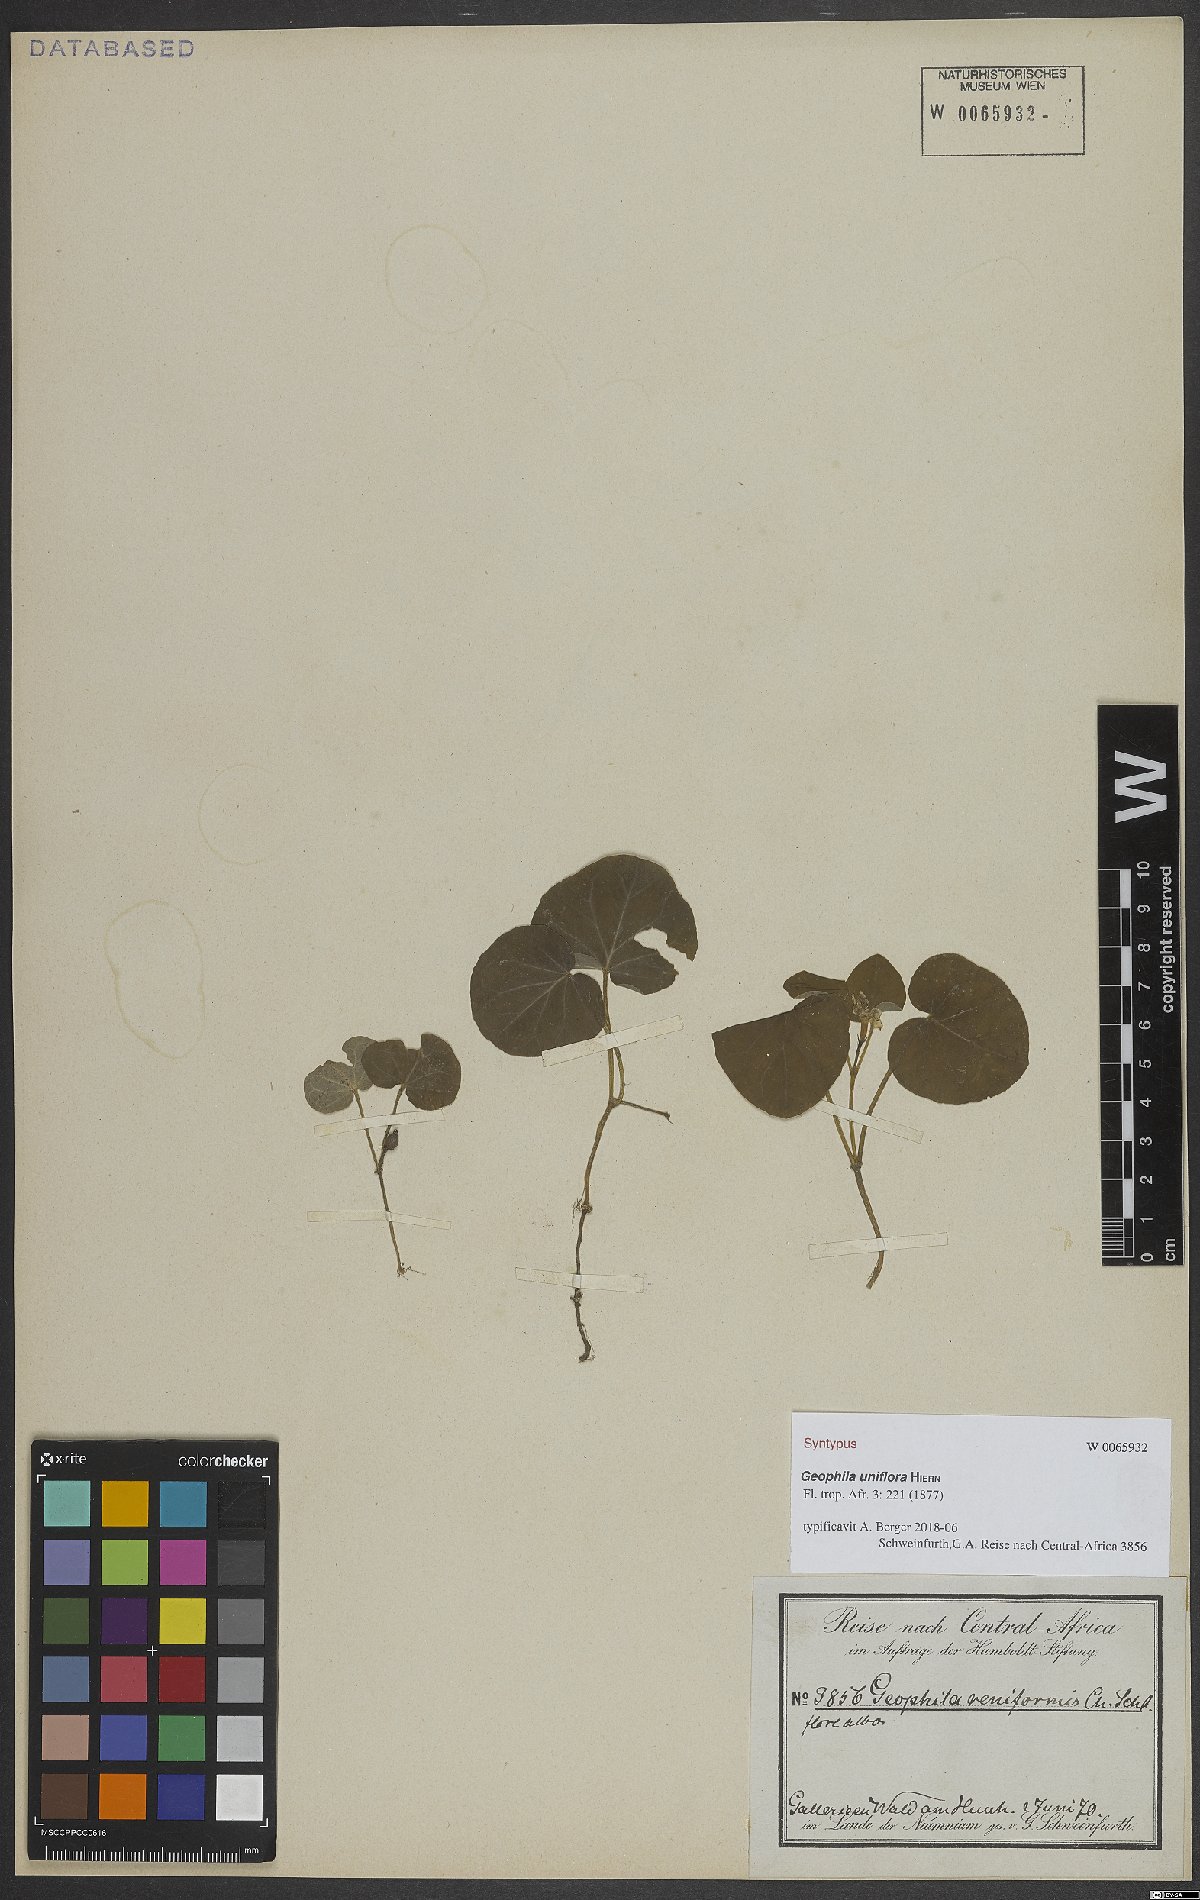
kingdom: Plantae
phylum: Tracheophyta
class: Magnoliopsida
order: Gentianales
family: Rubiaceae
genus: Geophila
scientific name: Geophila herbacea
